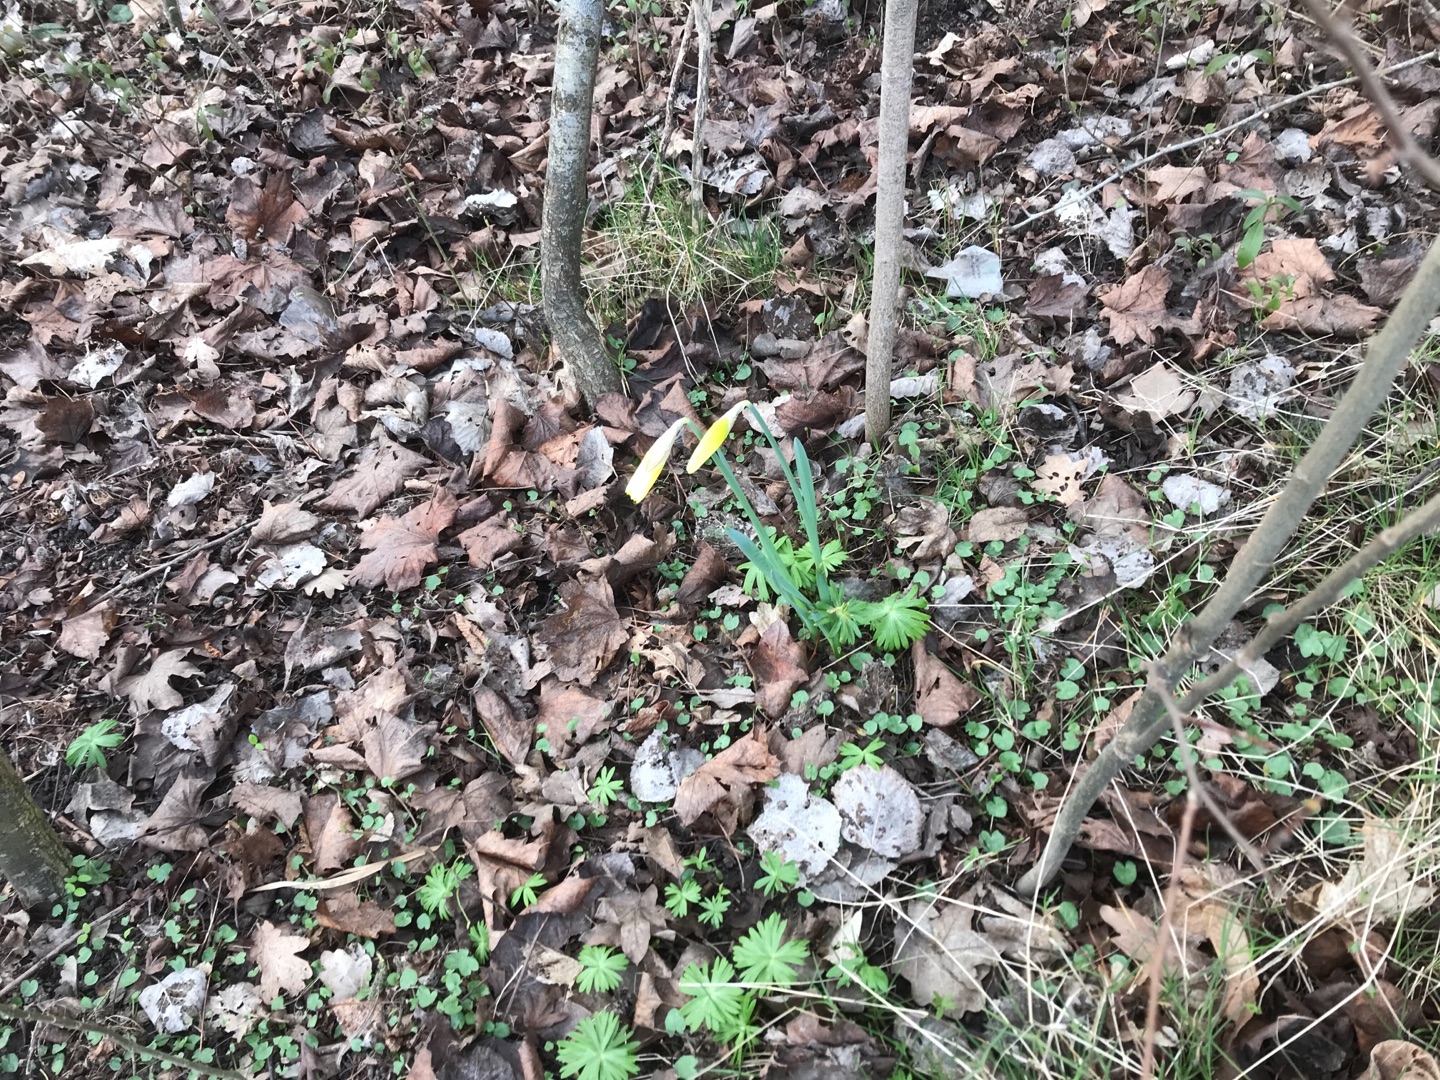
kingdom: Plantae
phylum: Tracheophyta
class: Liliopsida
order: Asparagales
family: Amaryllidaceae
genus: Narcissus
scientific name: Narcissus pseudonarcissus
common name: Påskelilje
